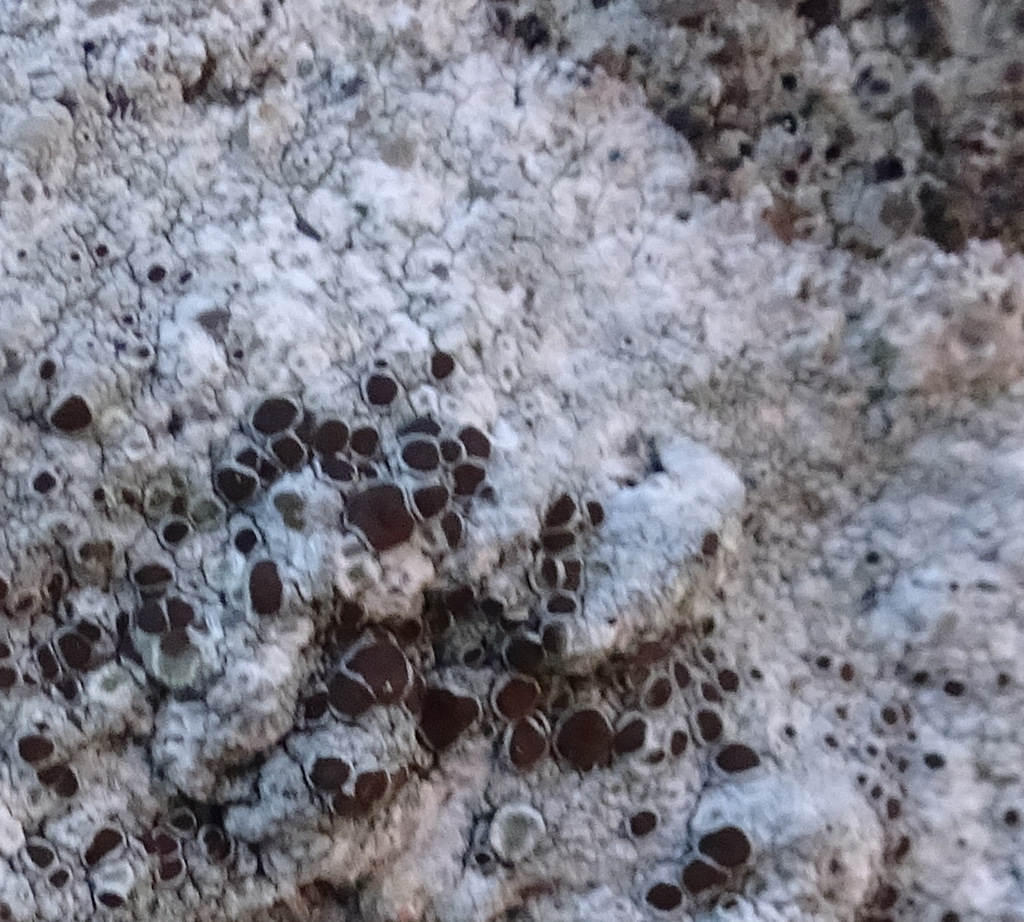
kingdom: Fungi
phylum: Ascomycota
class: Lecanoromycetes
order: Lecanorales
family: Lecanoraceae
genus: Lecanora
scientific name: Lecanora campestris
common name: mur-kantskivelav
